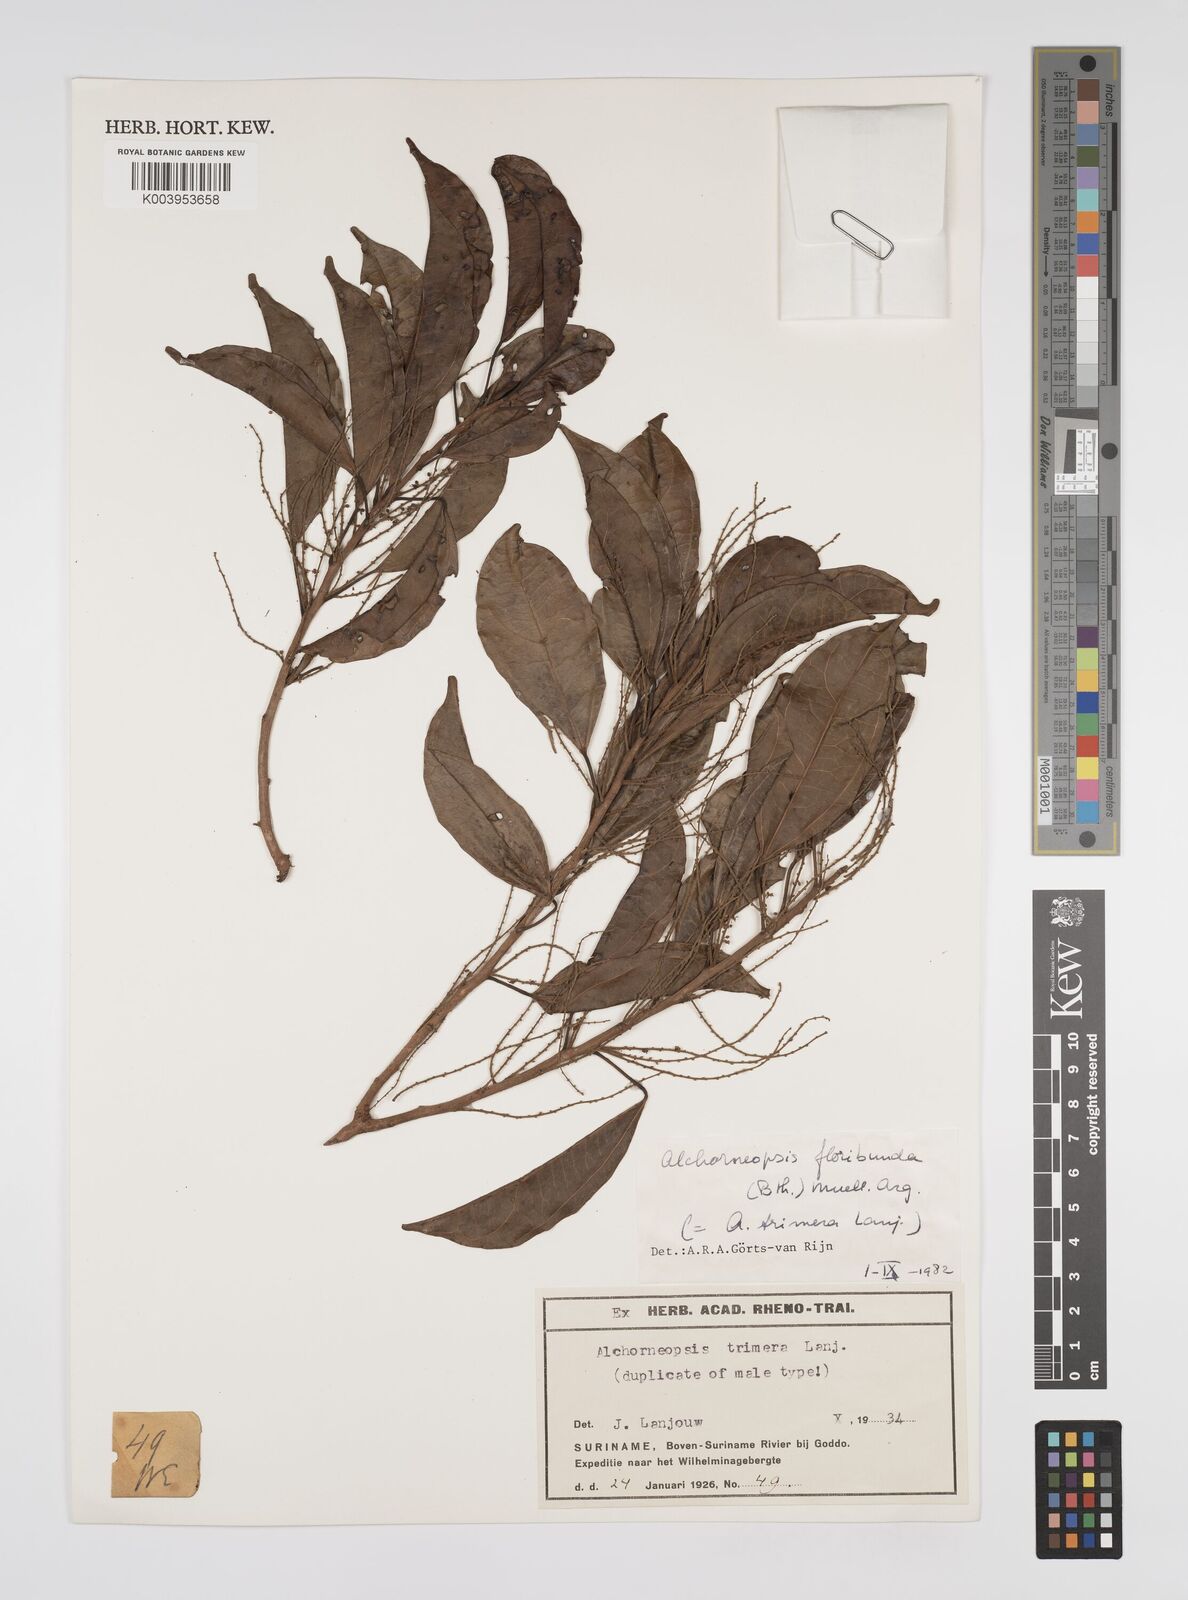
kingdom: Plantae
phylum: Tracheophyta
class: Magnoliopsida
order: Malpighiales
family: Euphorbiaceae
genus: Alchorneopsis
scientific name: Alchorneopsis floribunda
